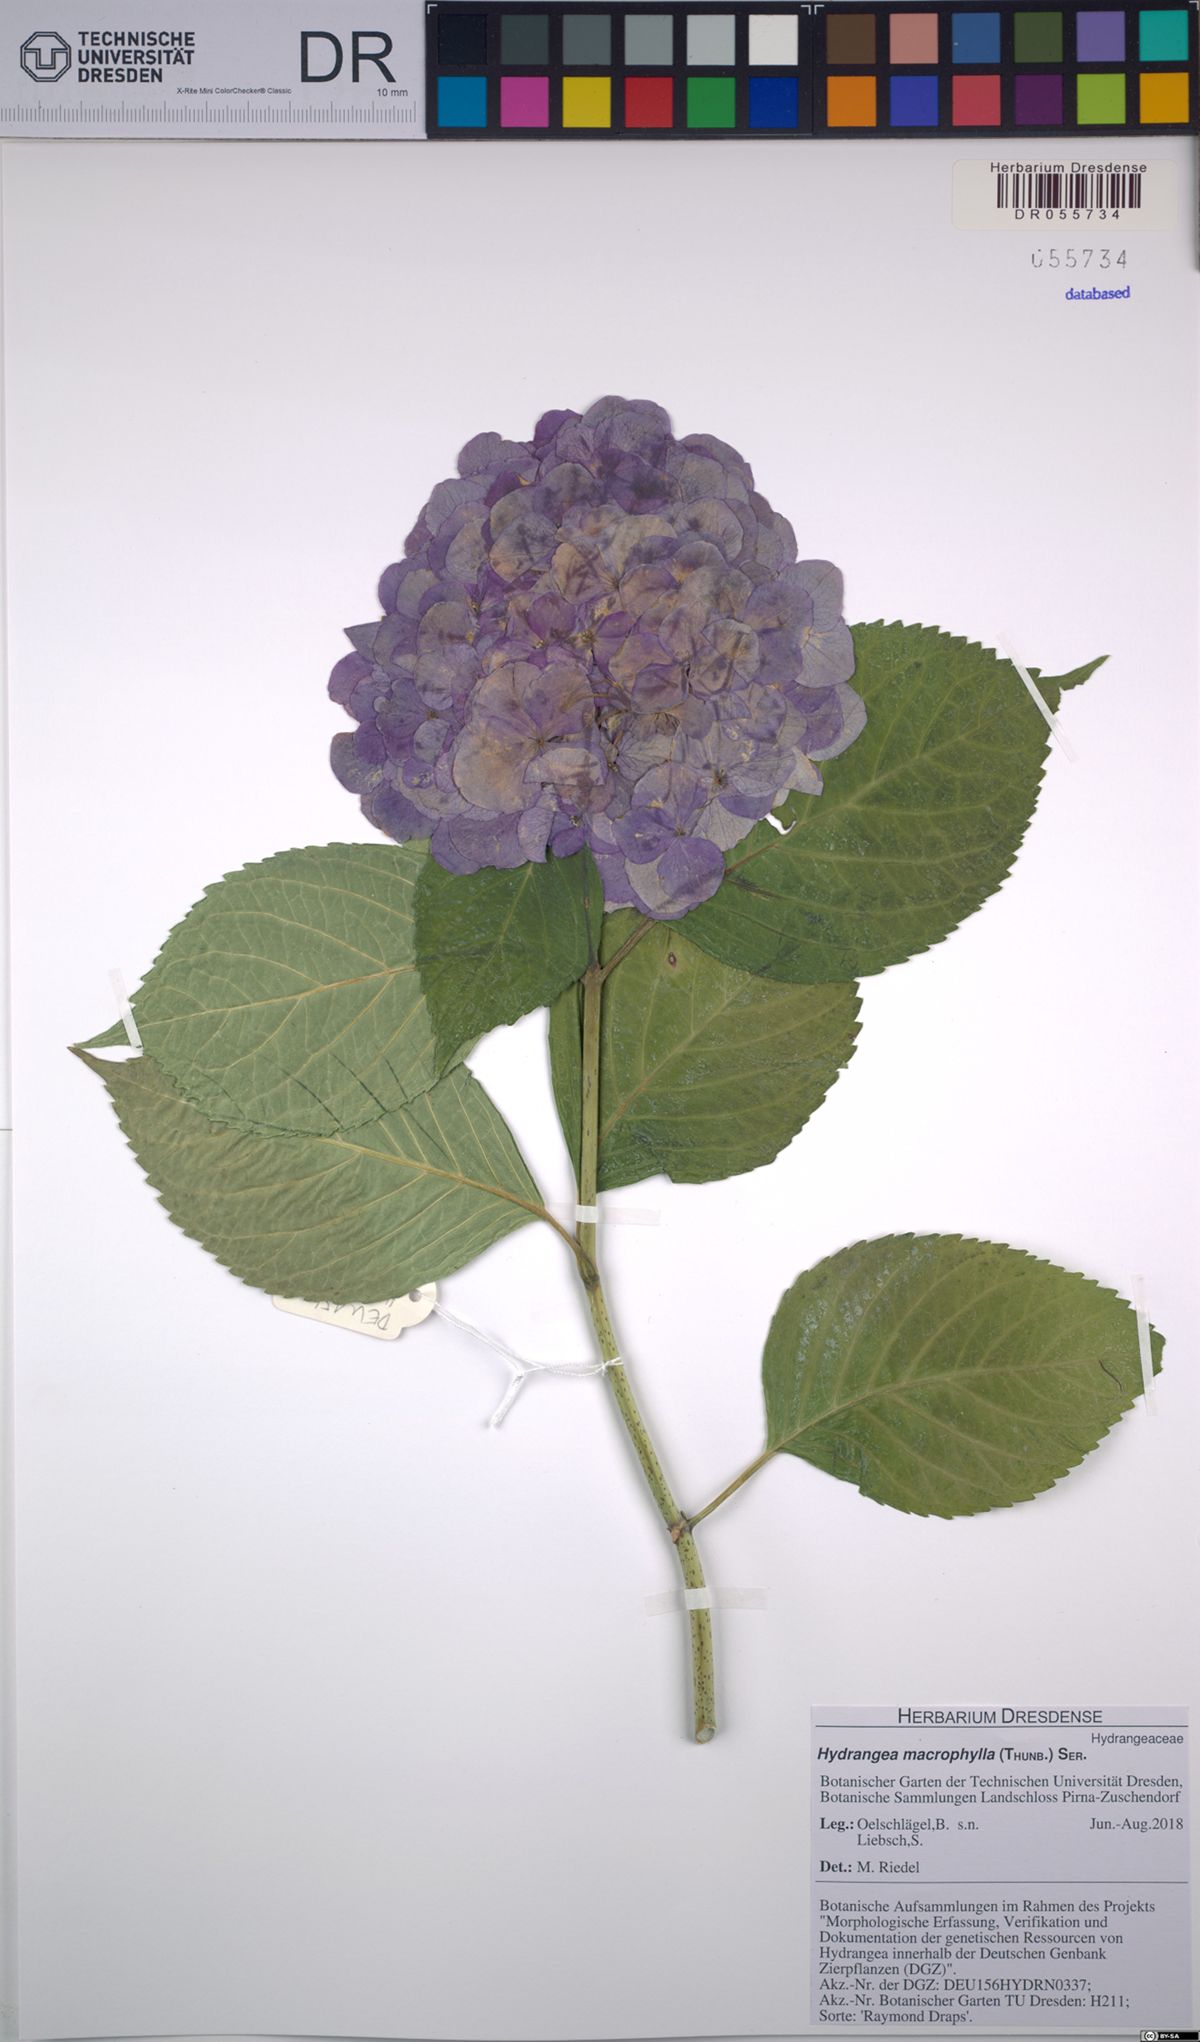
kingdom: Plantae
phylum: Tracheophyta
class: Magnoliopsida
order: Cornales
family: Hydrangeaceae
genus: Hydrangea
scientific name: Hydrangea macrophylla
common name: Hydrangea
